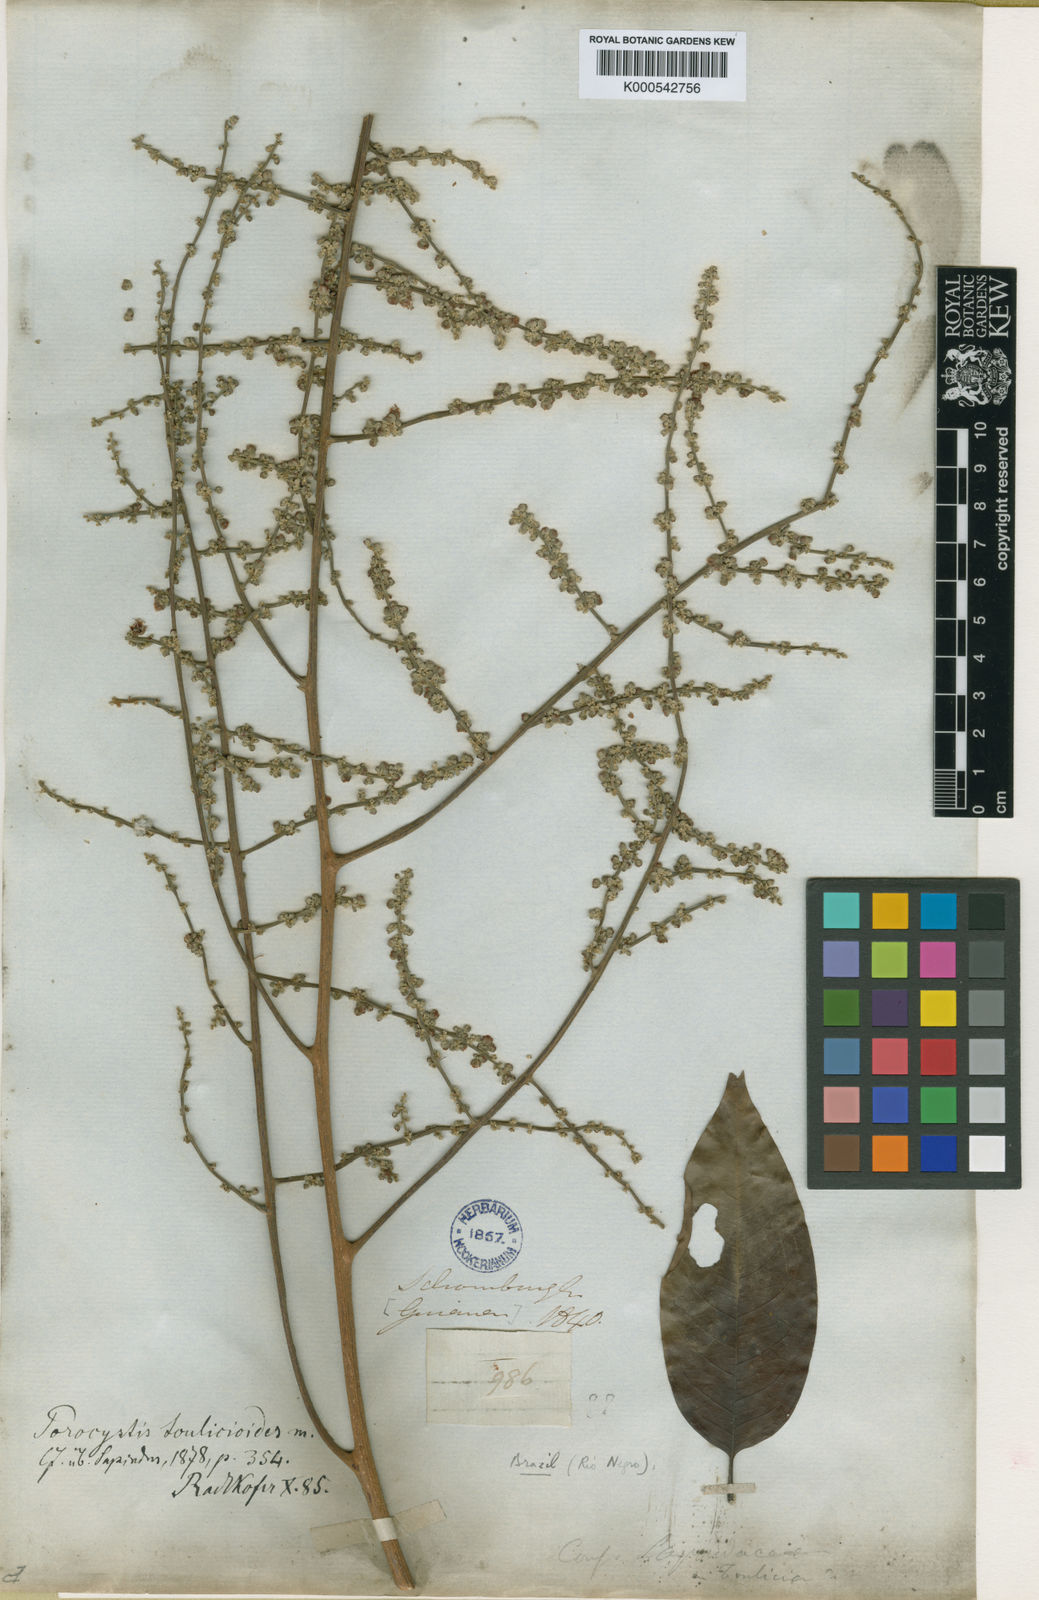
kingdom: Plantae
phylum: Tracheophyta
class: Magnoliopsida
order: Sapindales
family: Sapindaceae
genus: Porocystis
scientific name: Porocystis toulicioides
